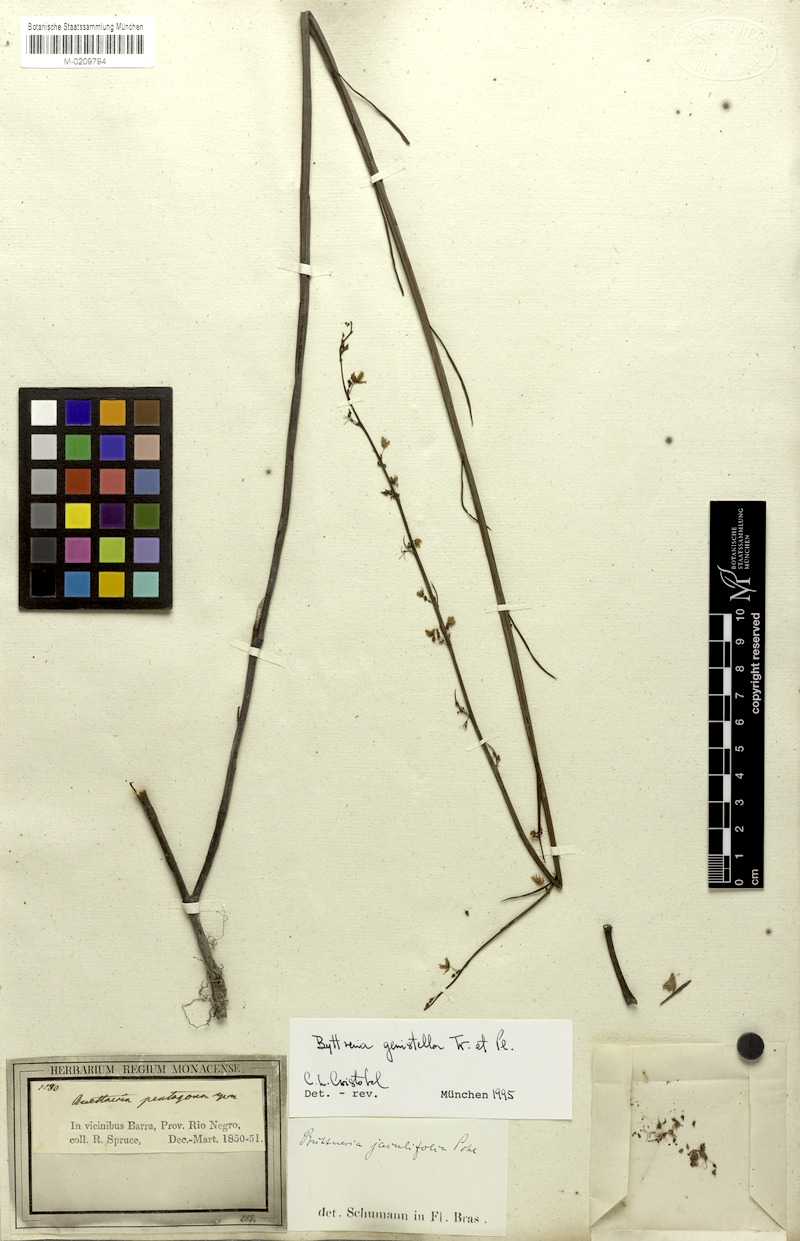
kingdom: Plantae
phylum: Tracheophyta
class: Magnoliopsida
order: Malvales
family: Malvaceae
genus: Byttneria
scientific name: Byttneria genistella
